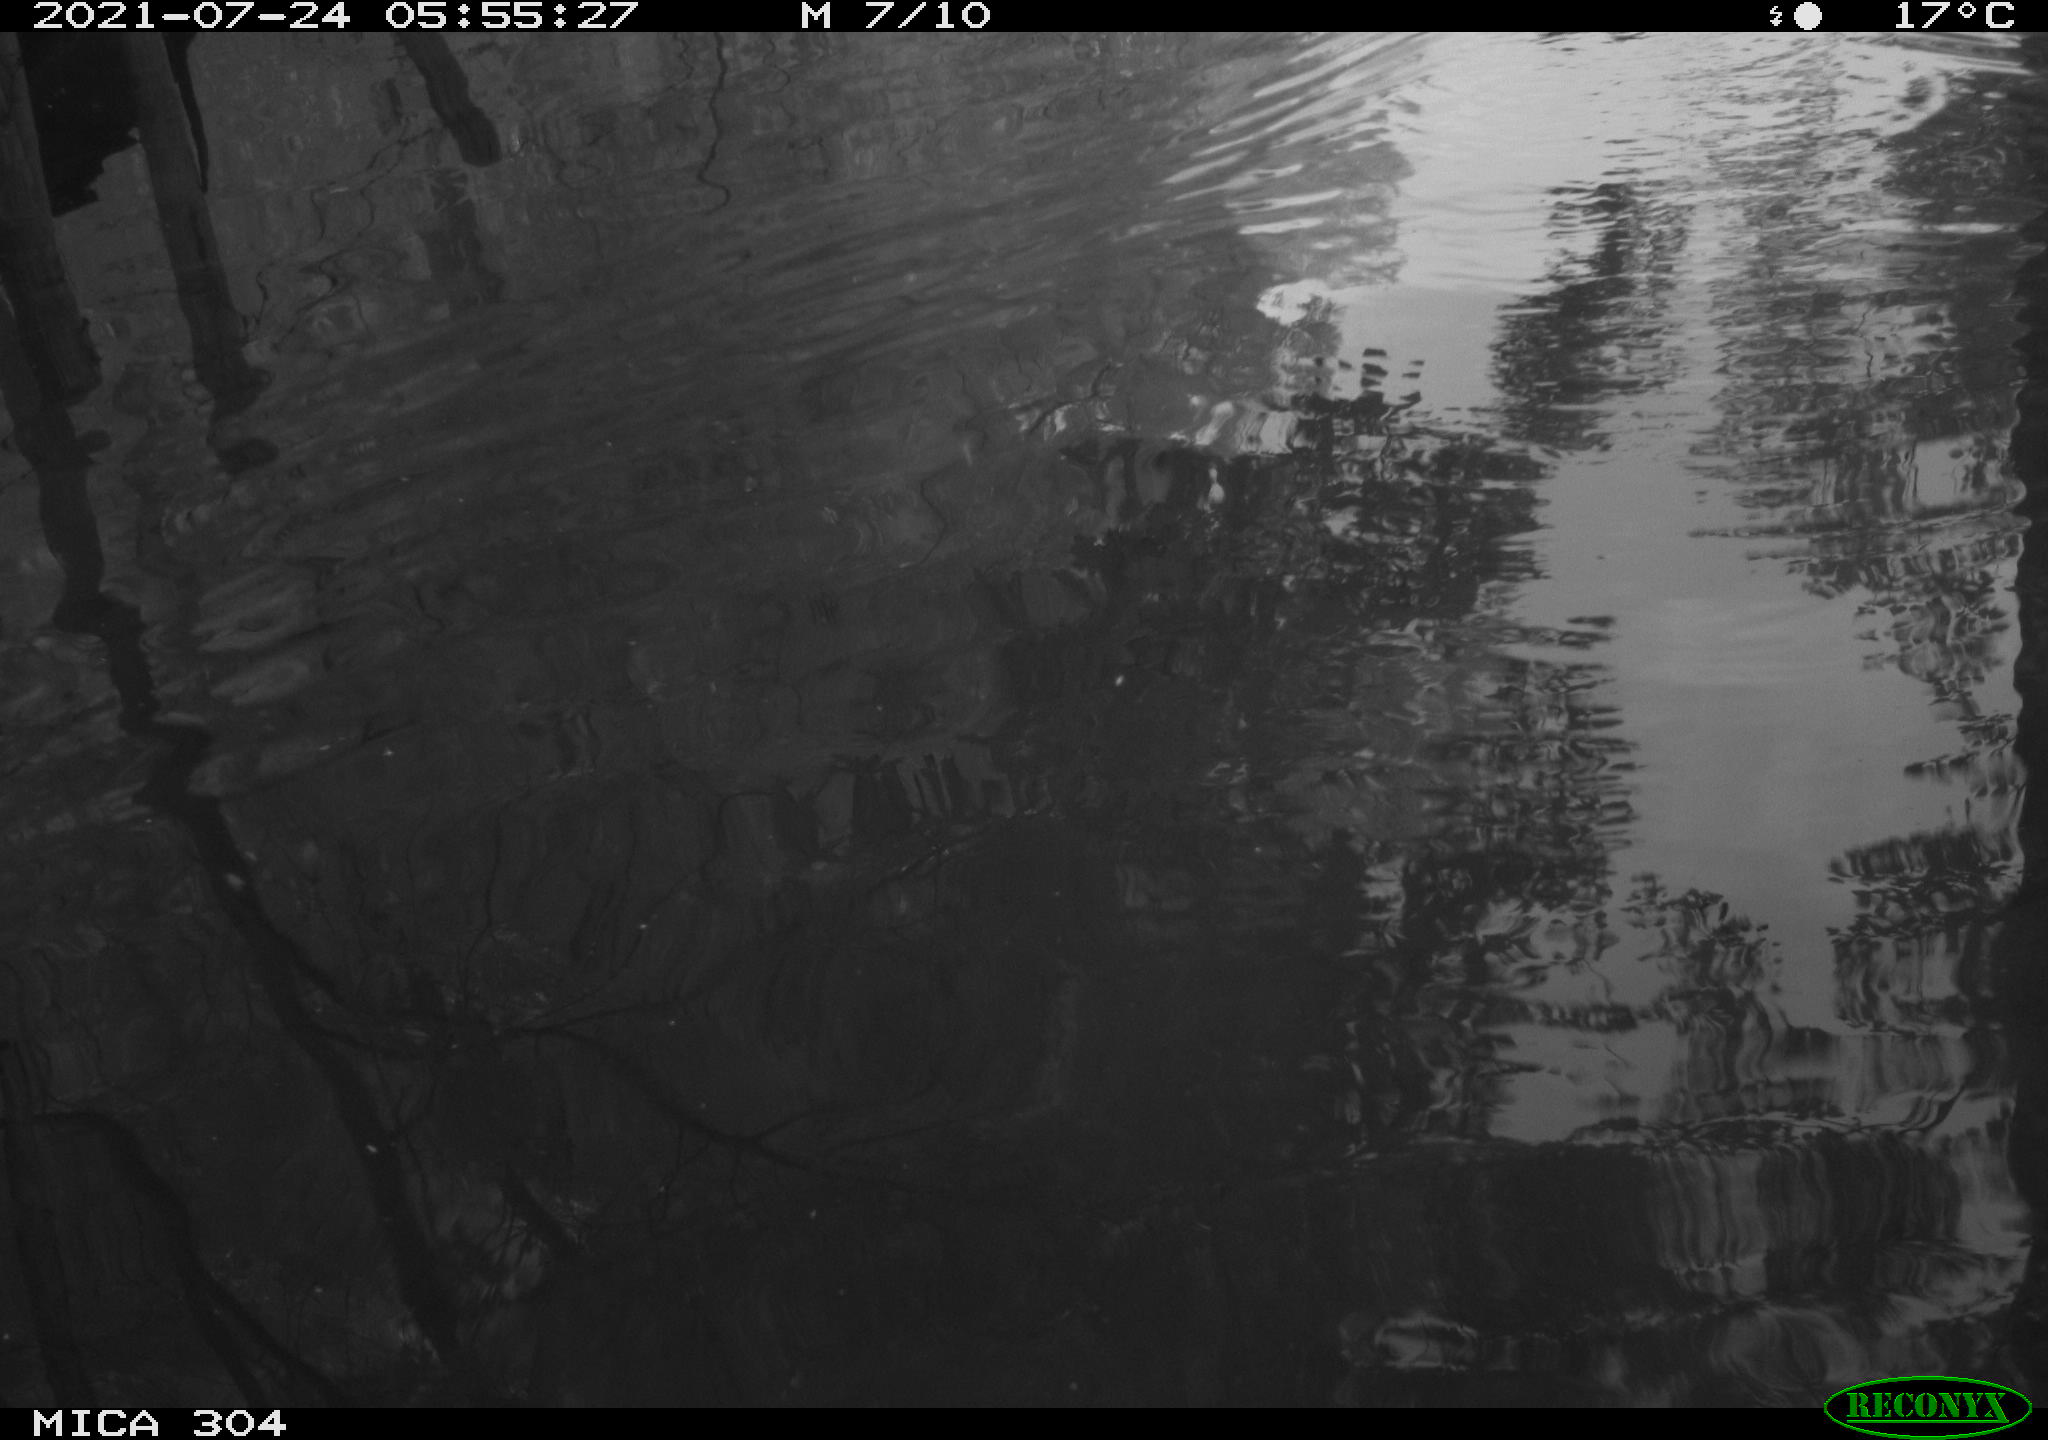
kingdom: Animalia
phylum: Chordata
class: Aves
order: Anseriformes
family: Anatidae
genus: Anas
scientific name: Anas platyrhynchos
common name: Mallard
